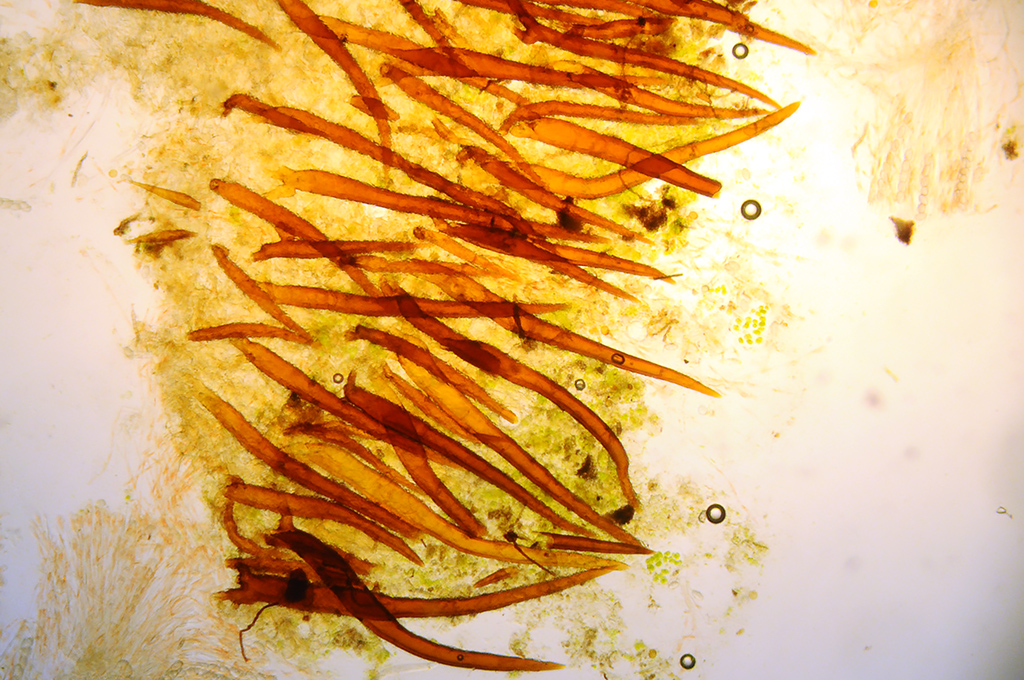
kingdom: Fungi
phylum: Ascomycota
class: Pezizomycetes
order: Pezizales
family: Pyronemataceae
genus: Scutellinia
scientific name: Scutellinia pilatii
